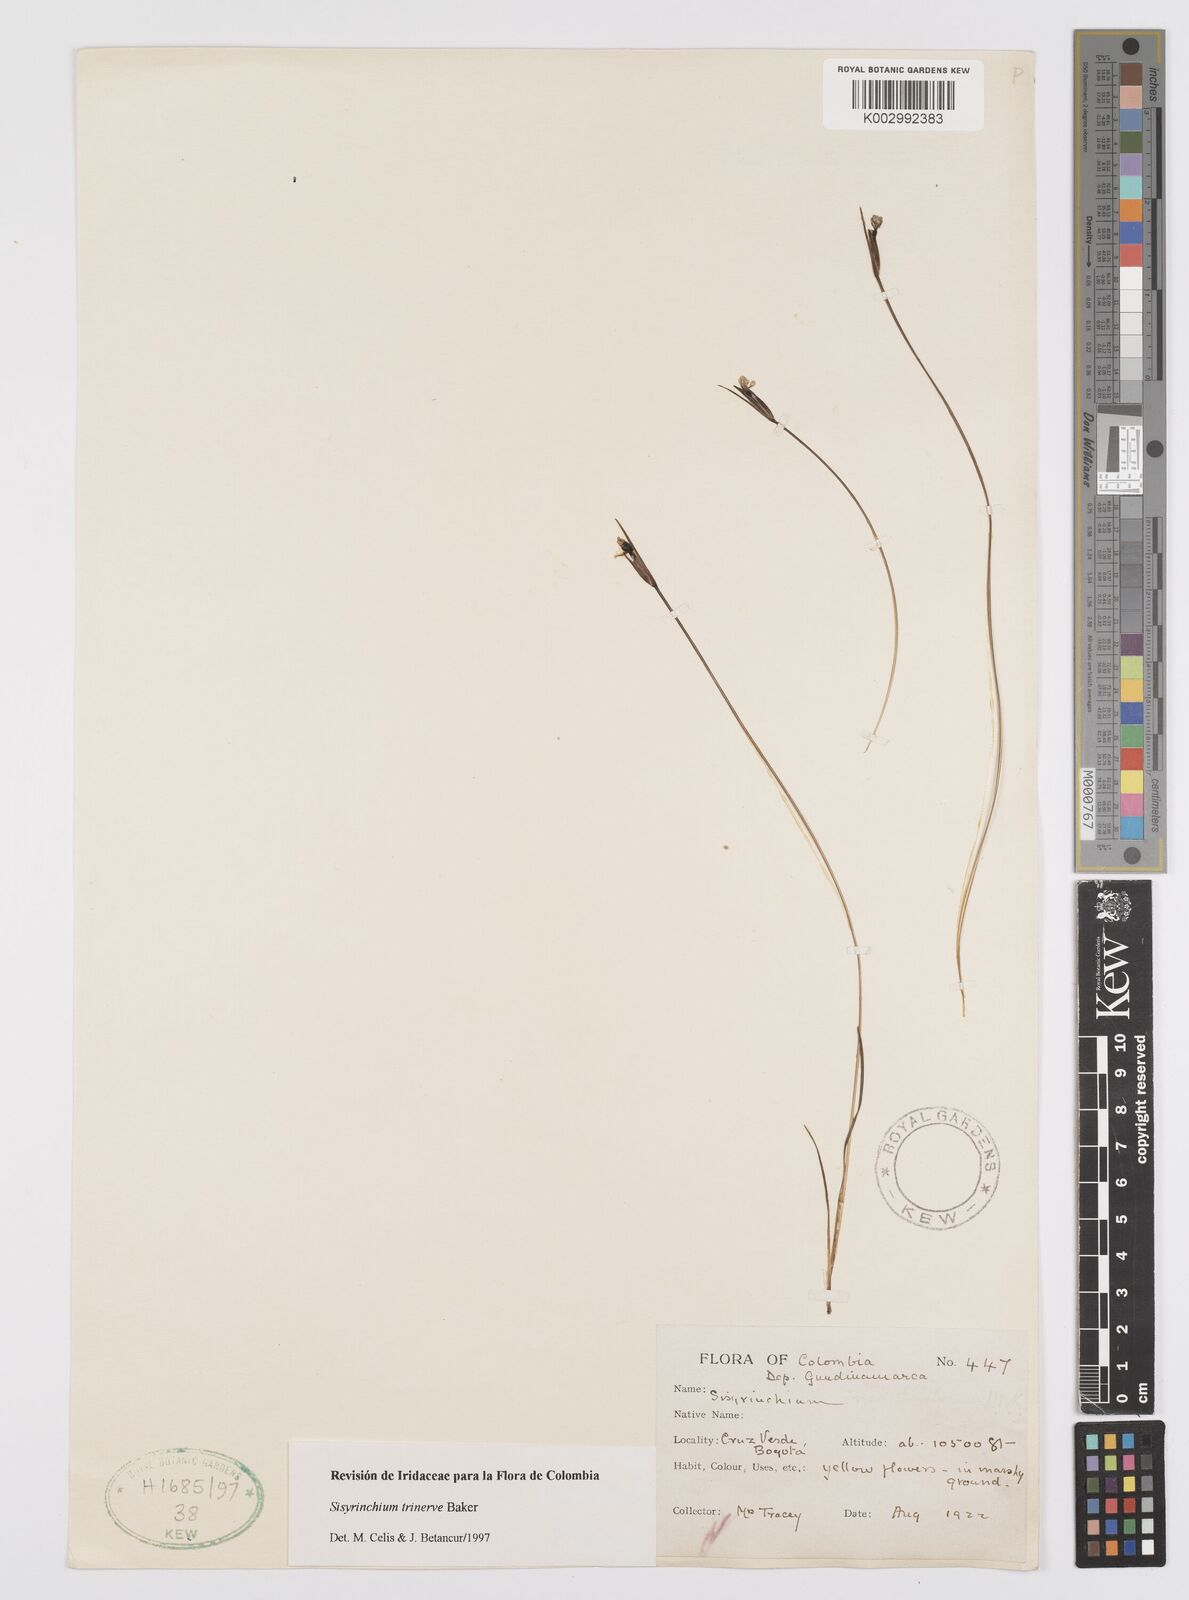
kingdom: Plantae
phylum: Tracheophyta
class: Liliopsida
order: Asparagales
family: Iridaceae
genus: Olsynium
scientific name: Olsynium trinerve
